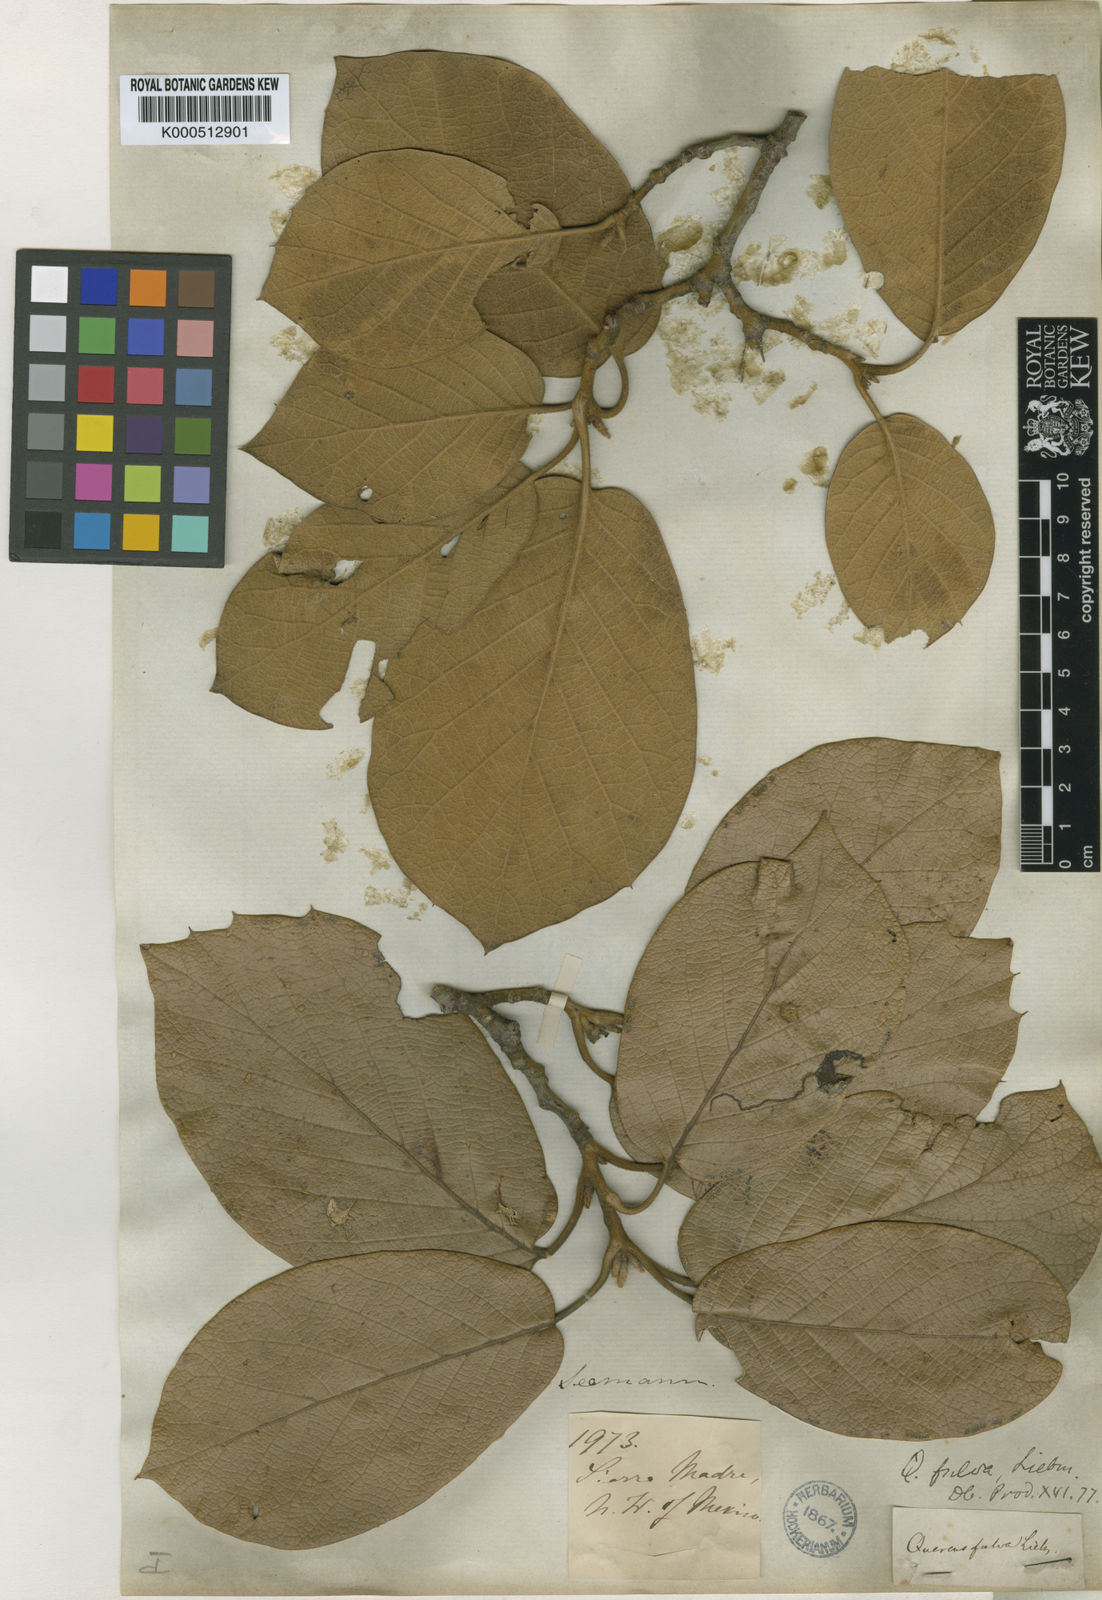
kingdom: Plantae
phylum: Tracheophyta
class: Magnoliopsida
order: Fagales
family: Fagaceae
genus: Quercus
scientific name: Quercus fulva
